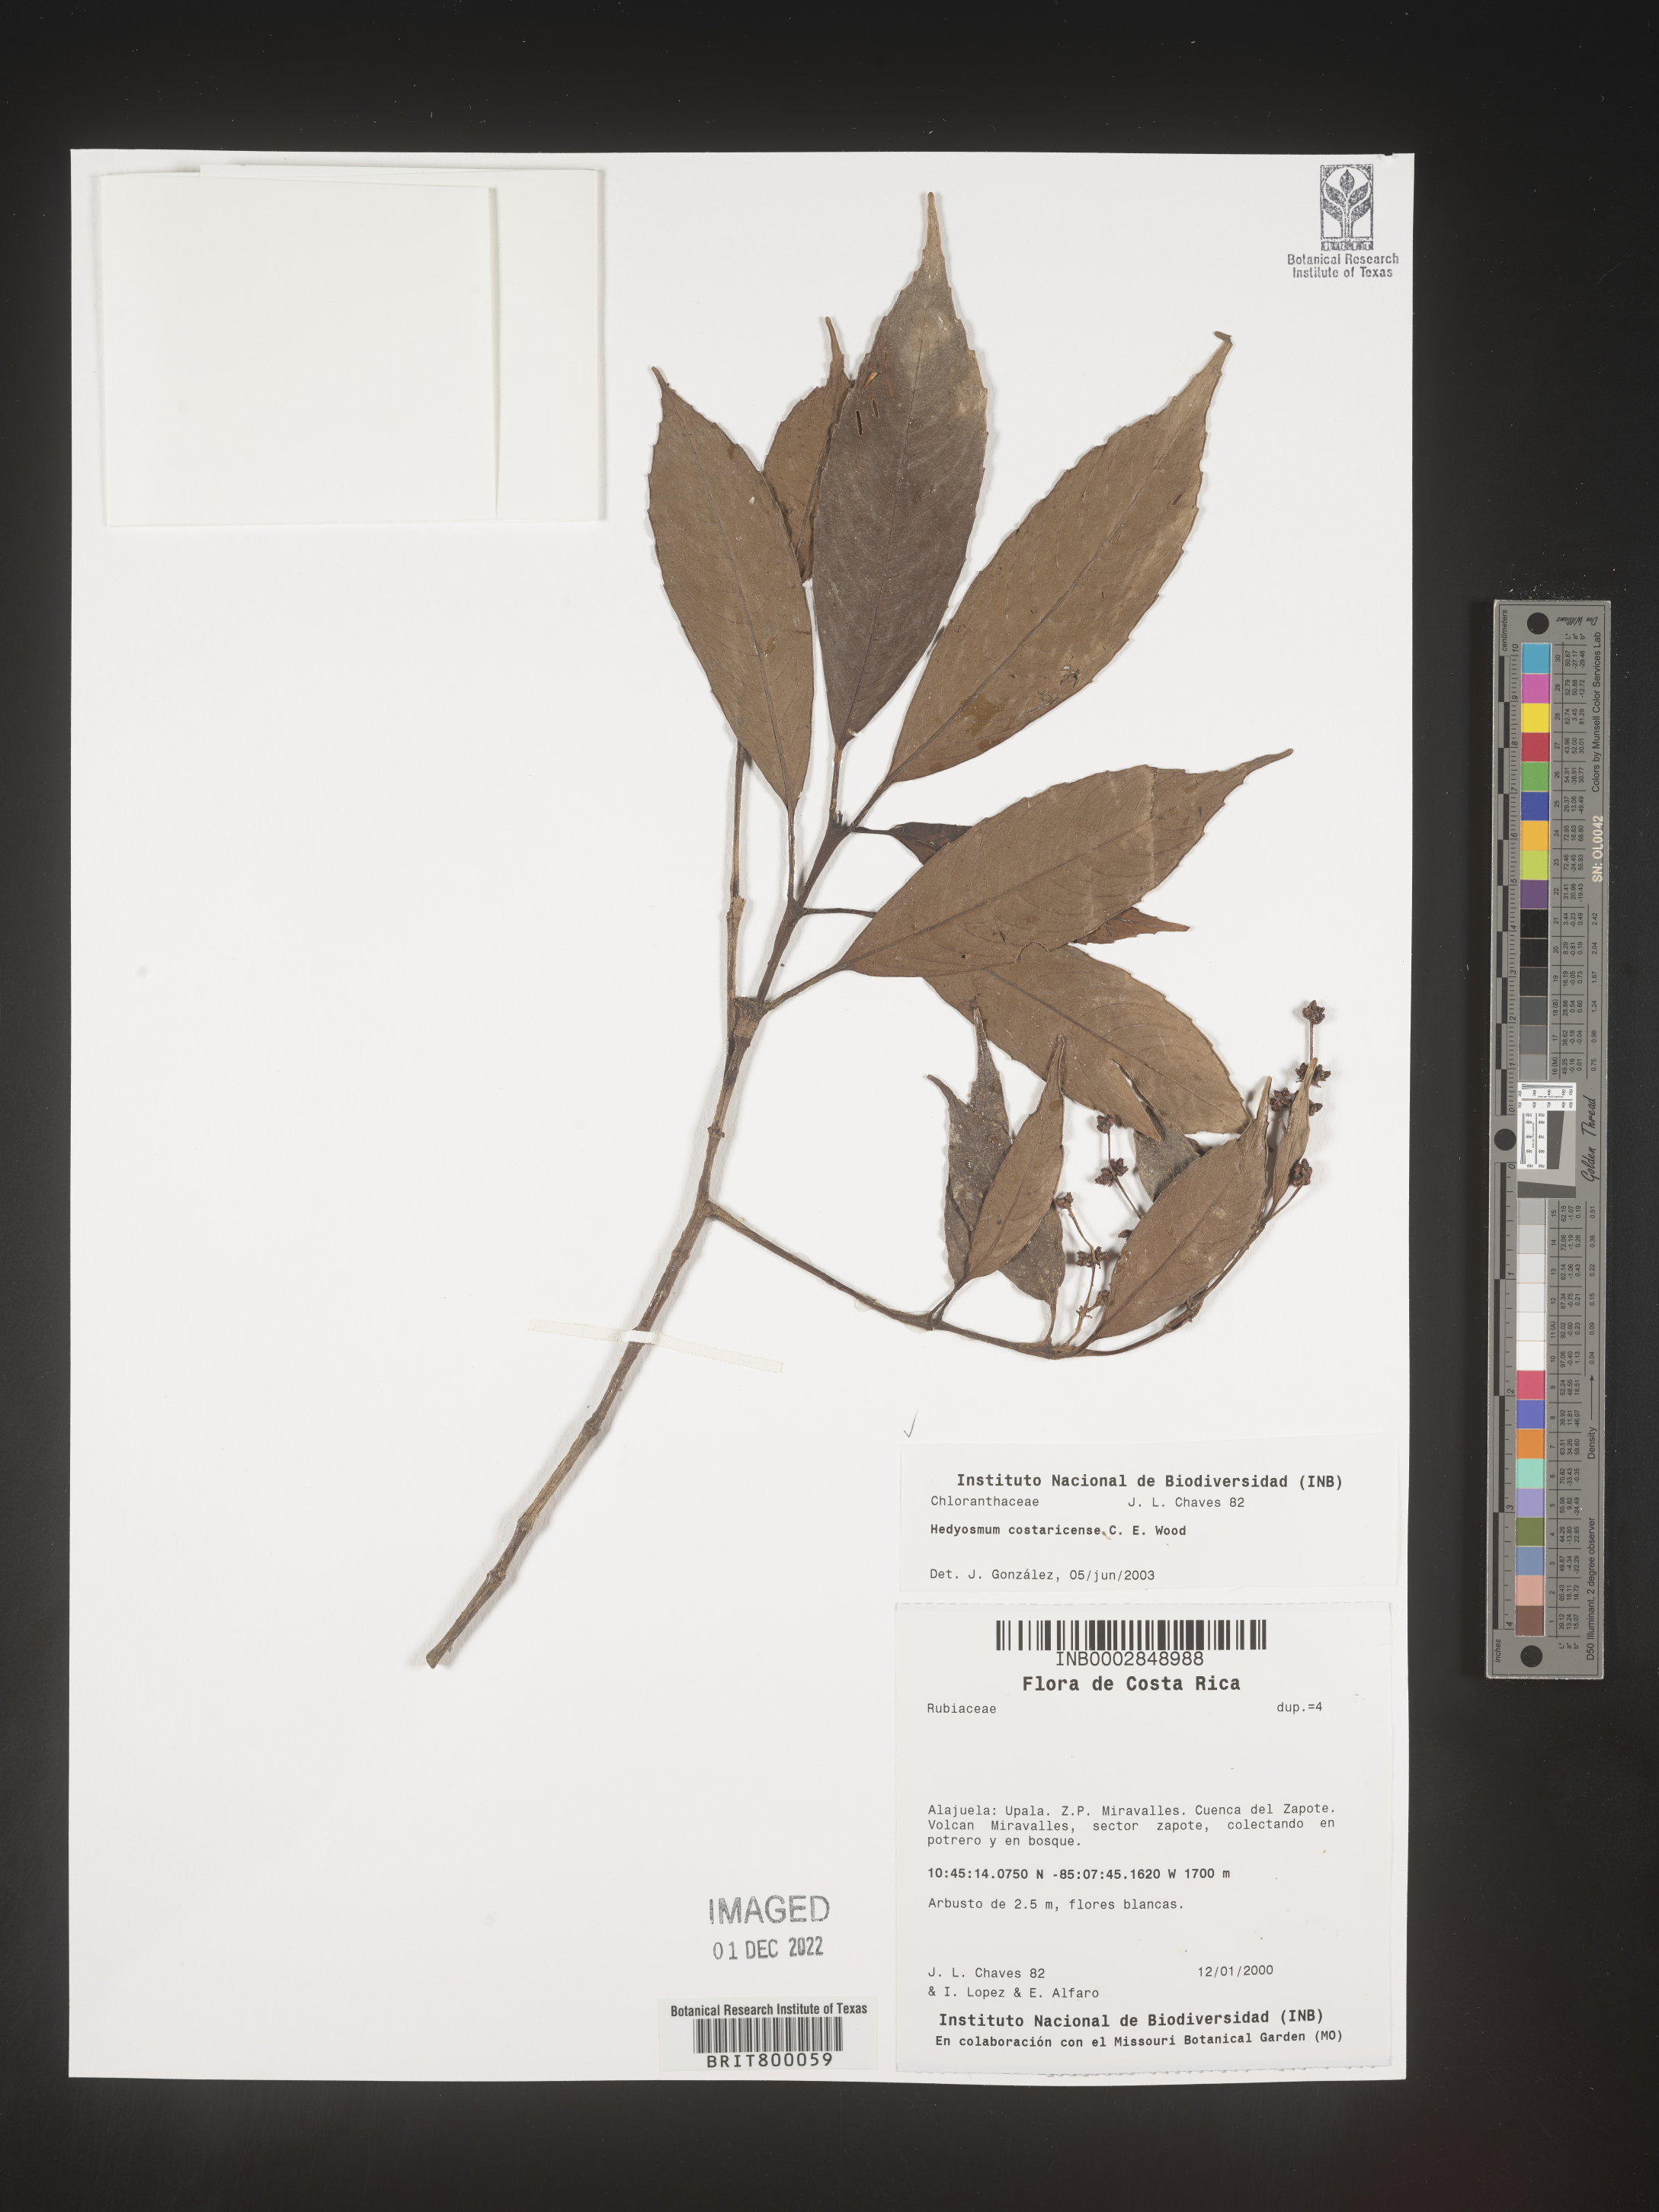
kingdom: Plantae
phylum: Tracheophyta
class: Magnoliopsida
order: Chloranthales
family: Chloranthaceae
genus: Hedyosmum
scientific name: Hedyosmum
